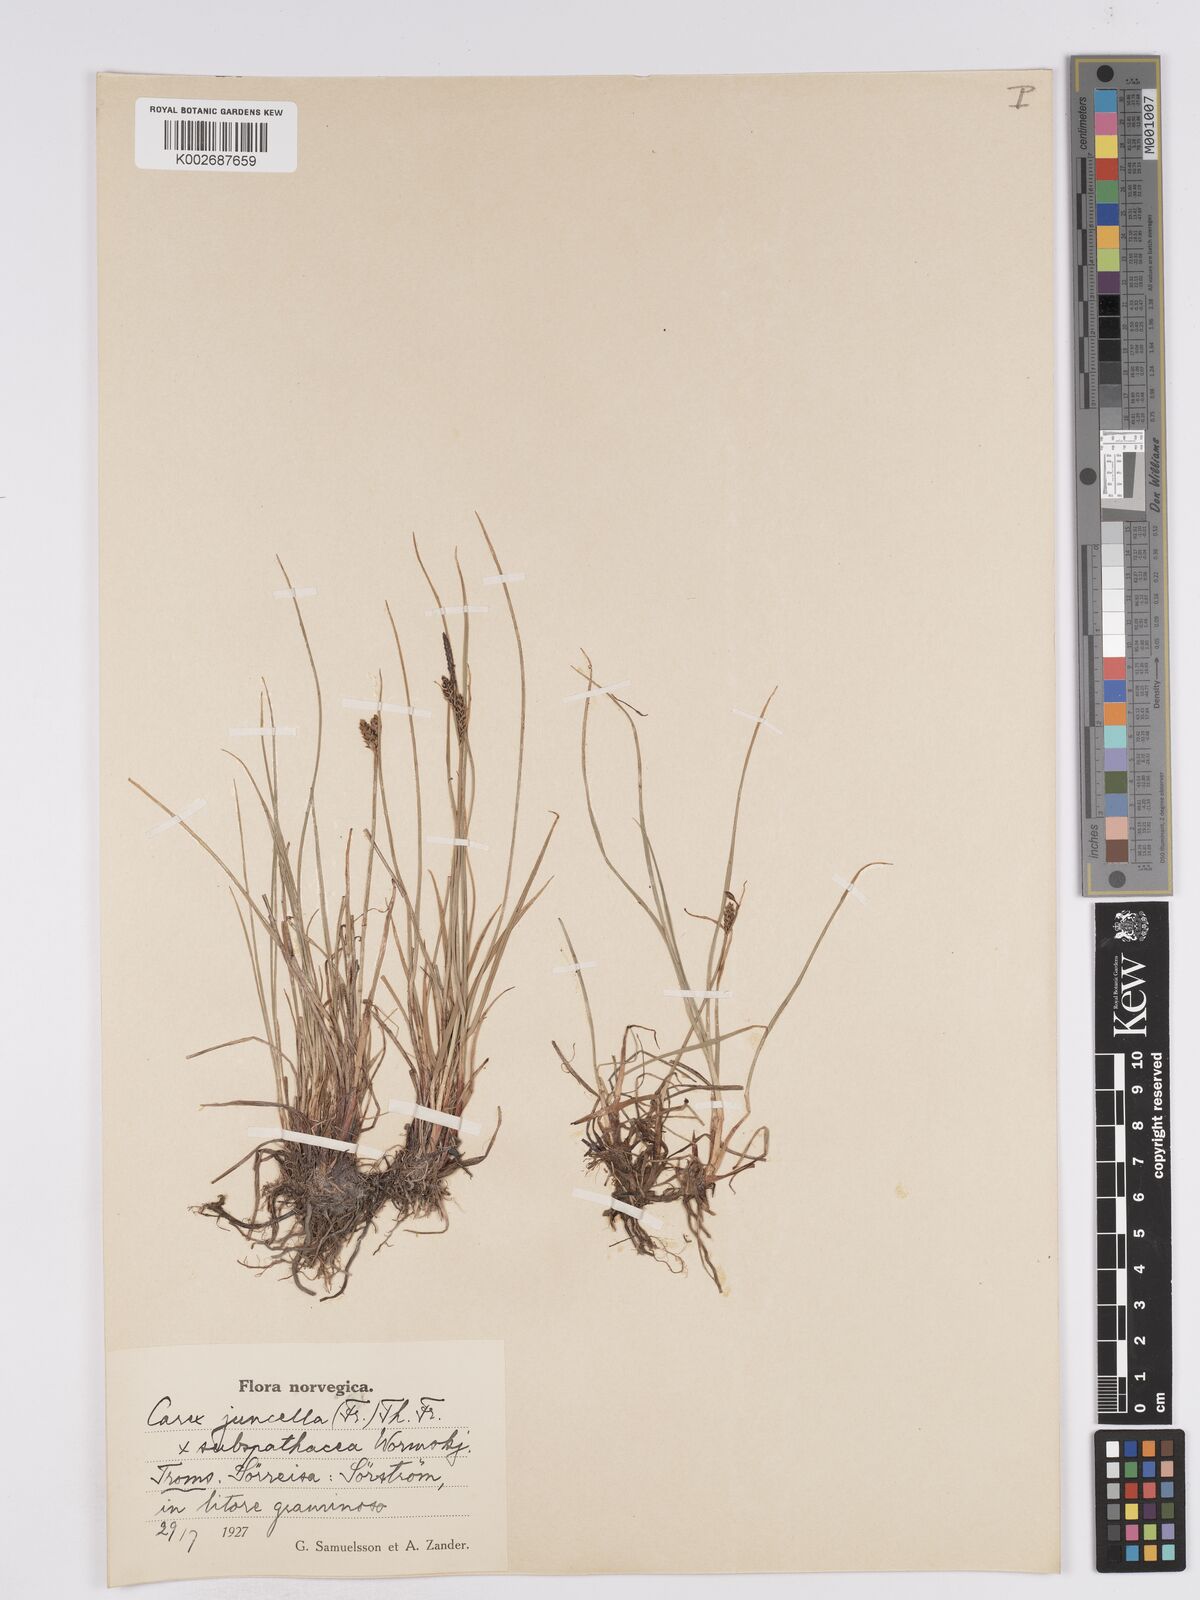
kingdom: Plantae
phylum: Tracheophyta
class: Liliopsida
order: Poales
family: Cyperaceae
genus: Carex
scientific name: Carex
